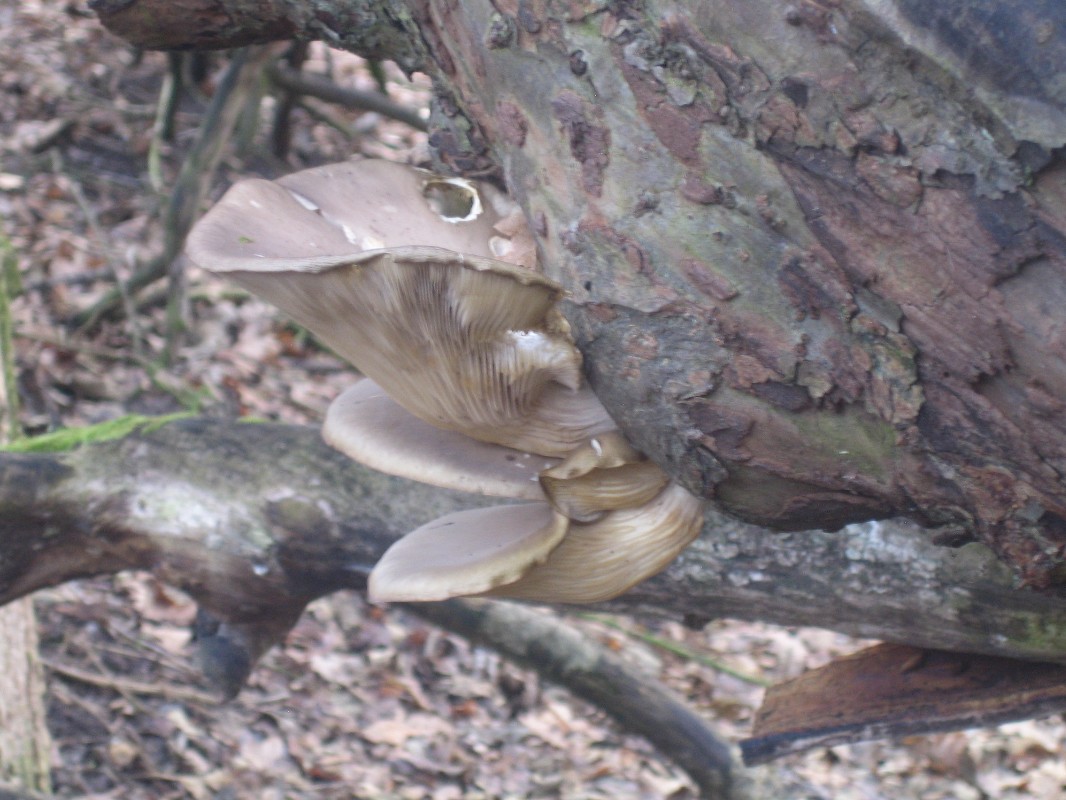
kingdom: Fungi
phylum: Basidiomycota
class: Agaricomycetes
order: Agaricales
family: Pleurotaceae
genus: Pleurotus
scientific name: Pleurotus ostreatus
